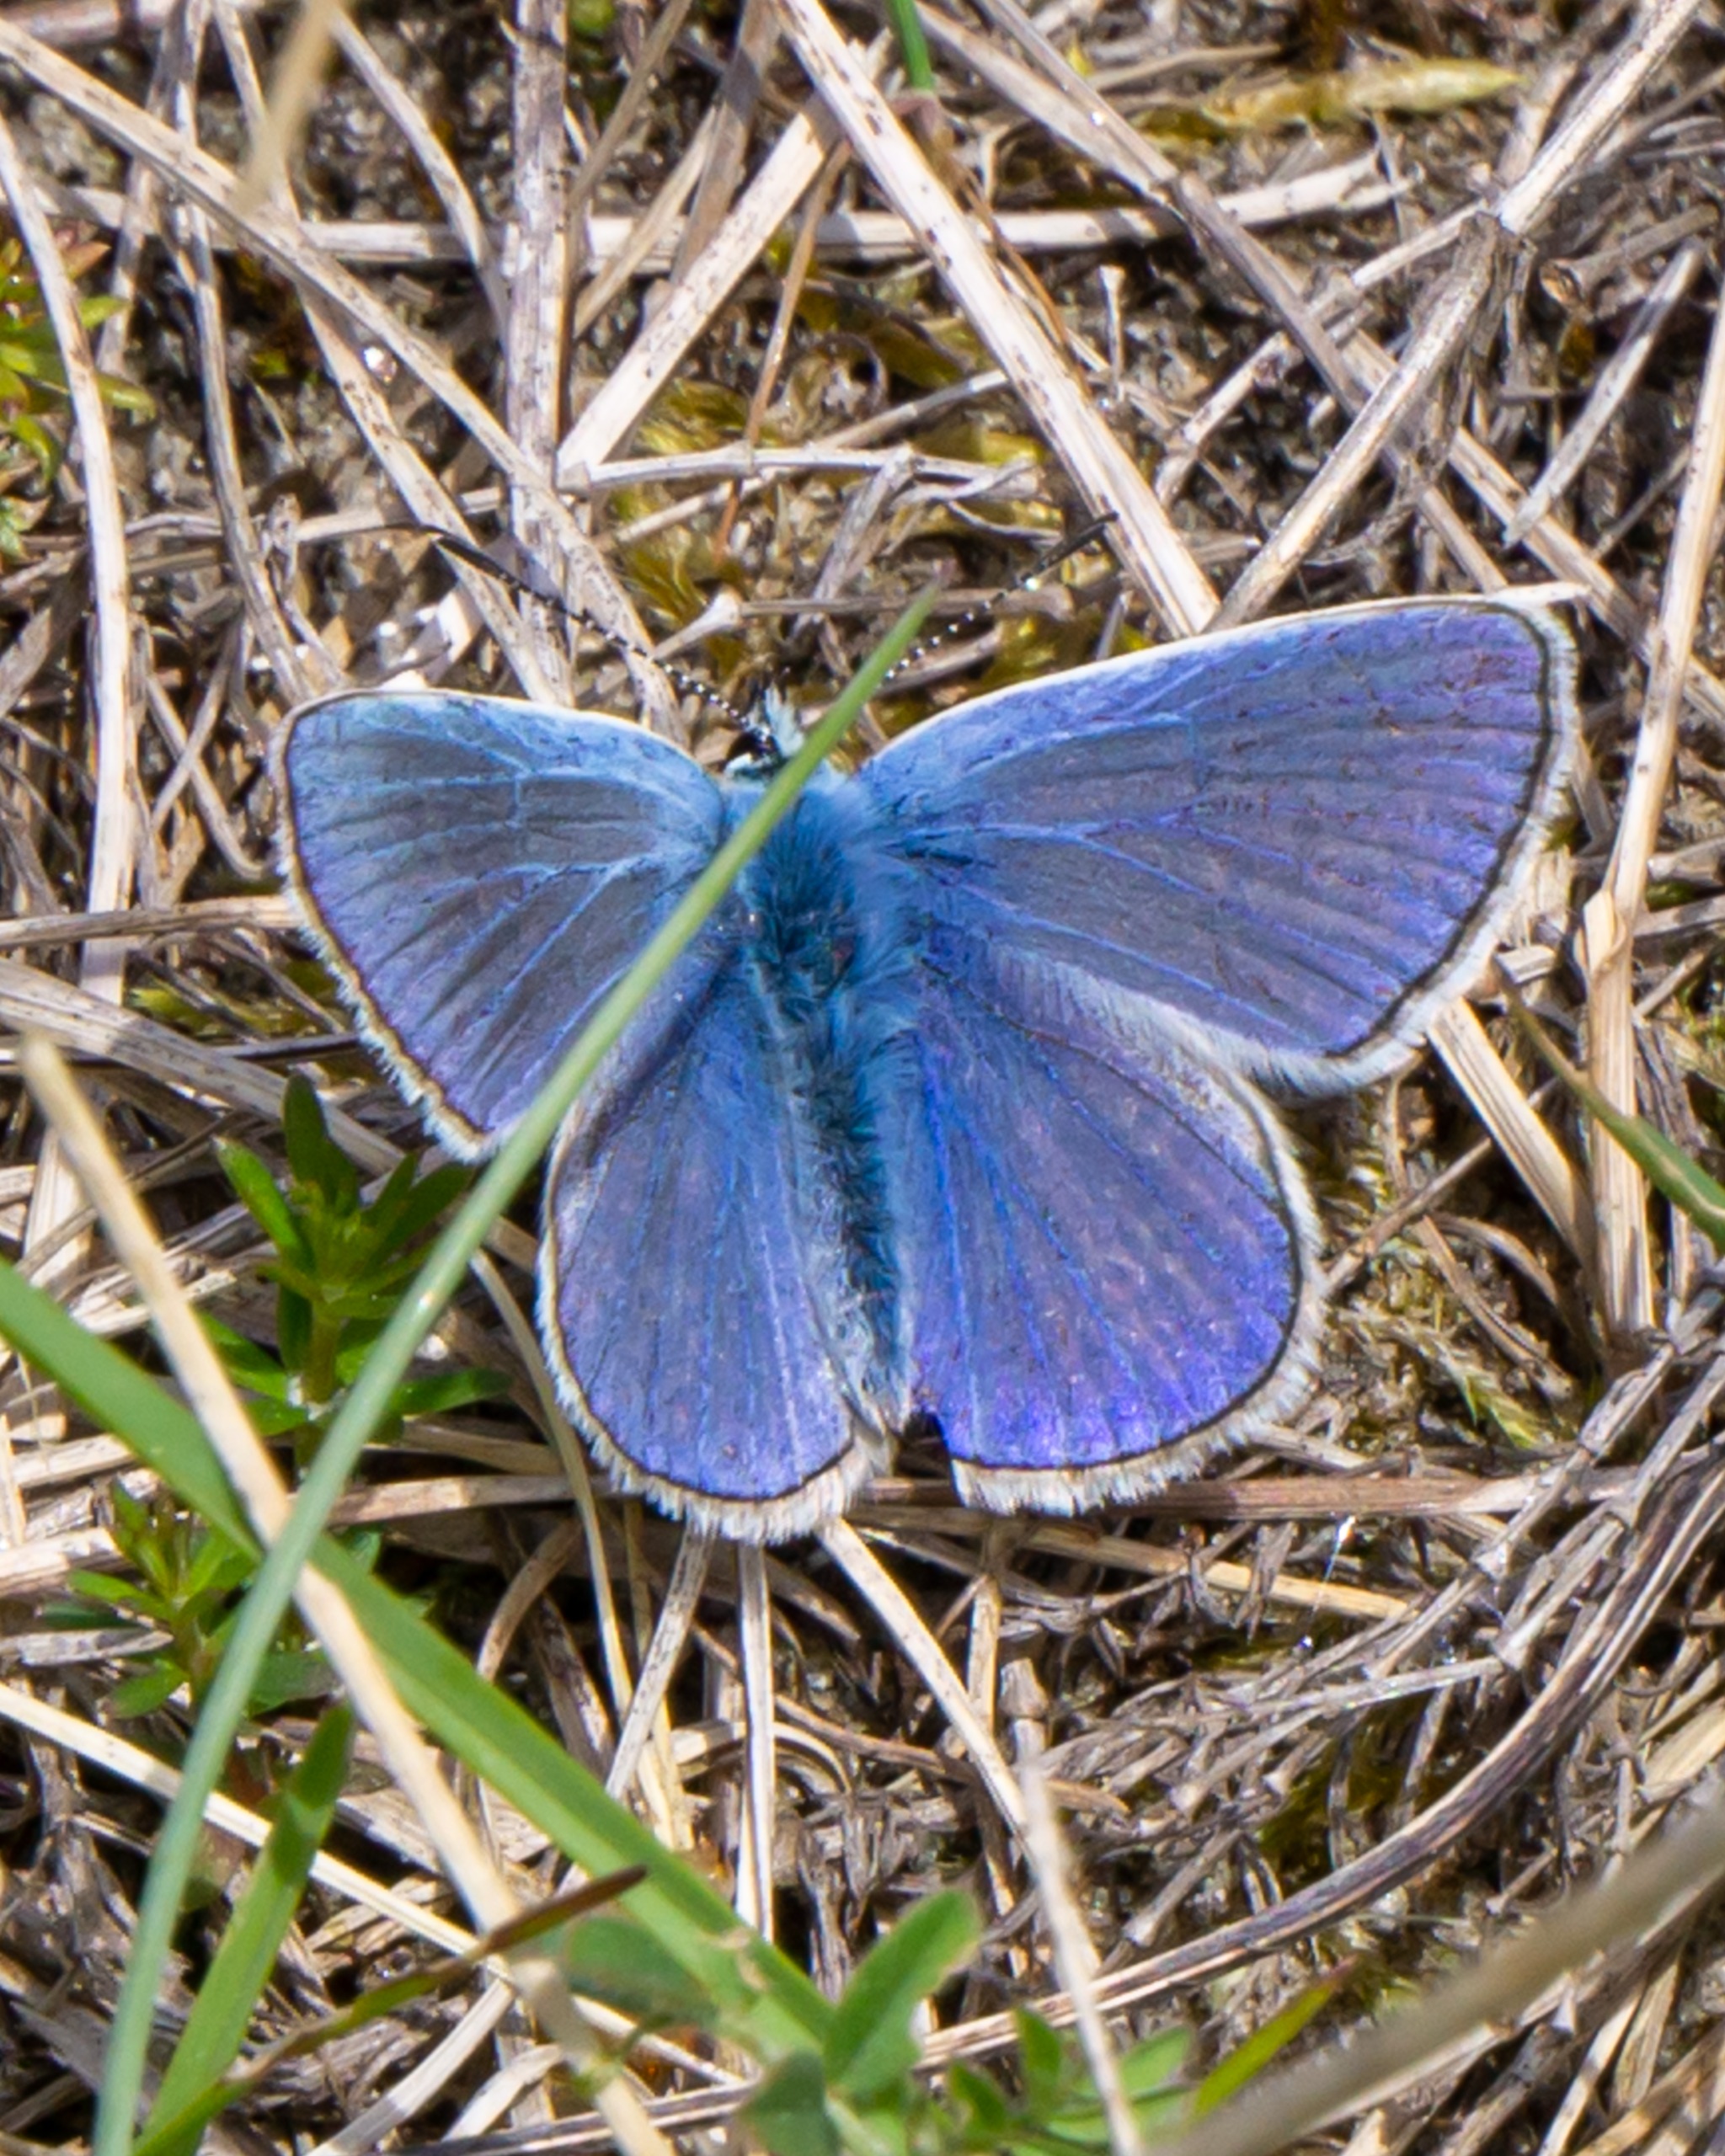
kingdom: Animalia
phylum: Arthropoda
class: Insecta
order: Lepidoptera
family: Lycaenidae
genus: Polyommatus
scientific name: Polyommatus icarus
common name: Almindelig blåfugl
